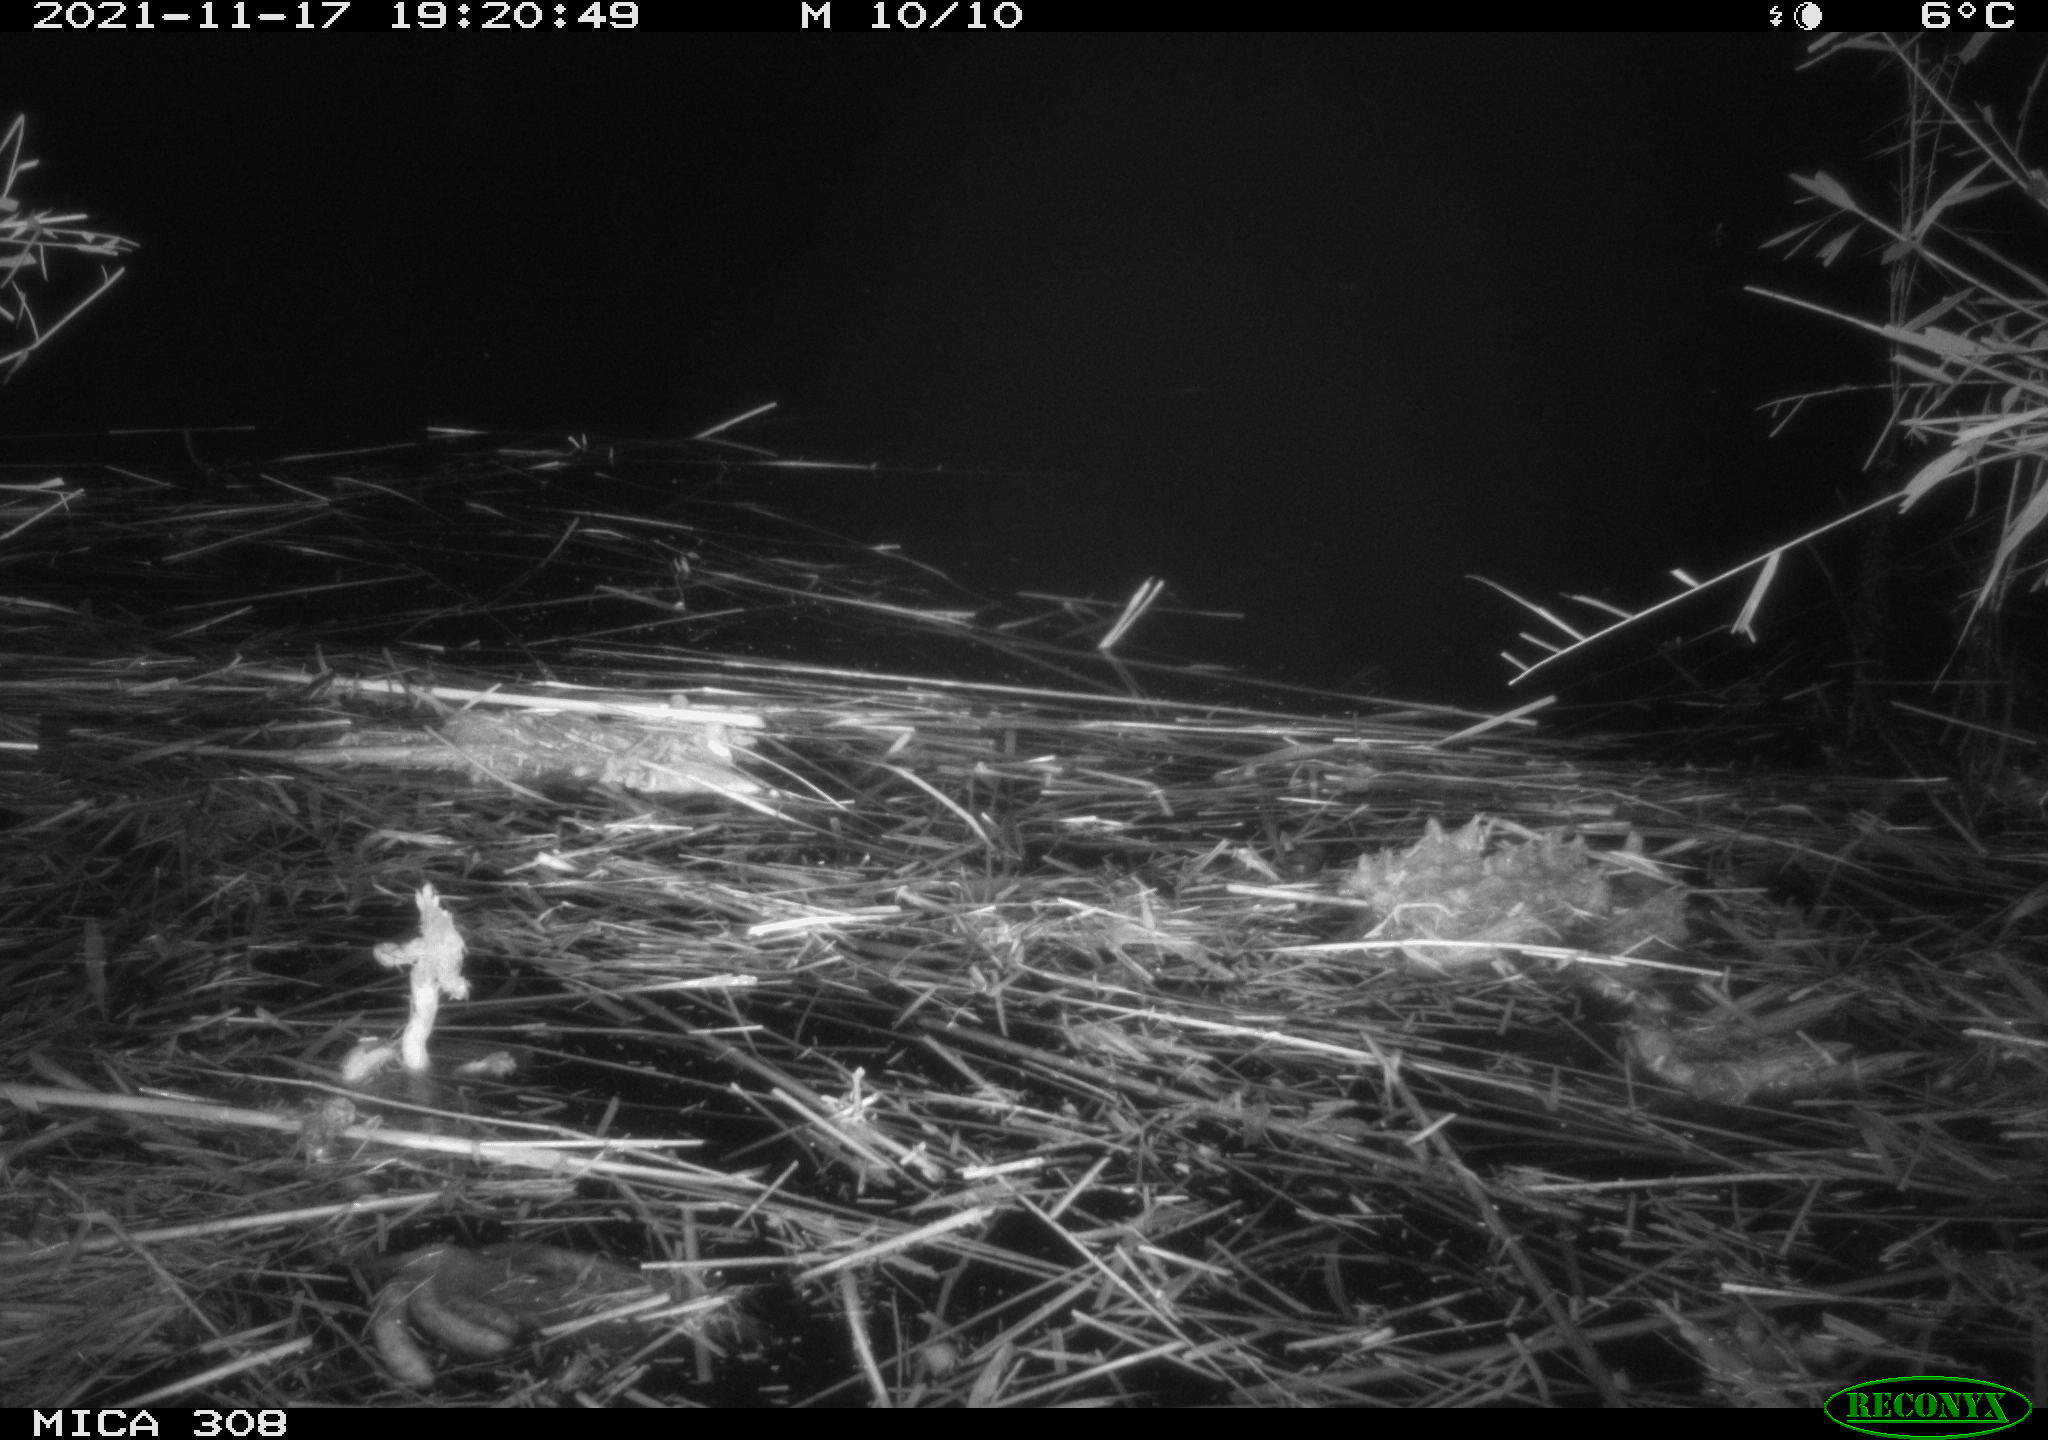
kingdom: Animalia
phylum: Chordata
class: Mammalia
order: Rodentia
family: Muridae
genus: Rattus
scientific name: Rattus norvegicus
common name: Brown rat
